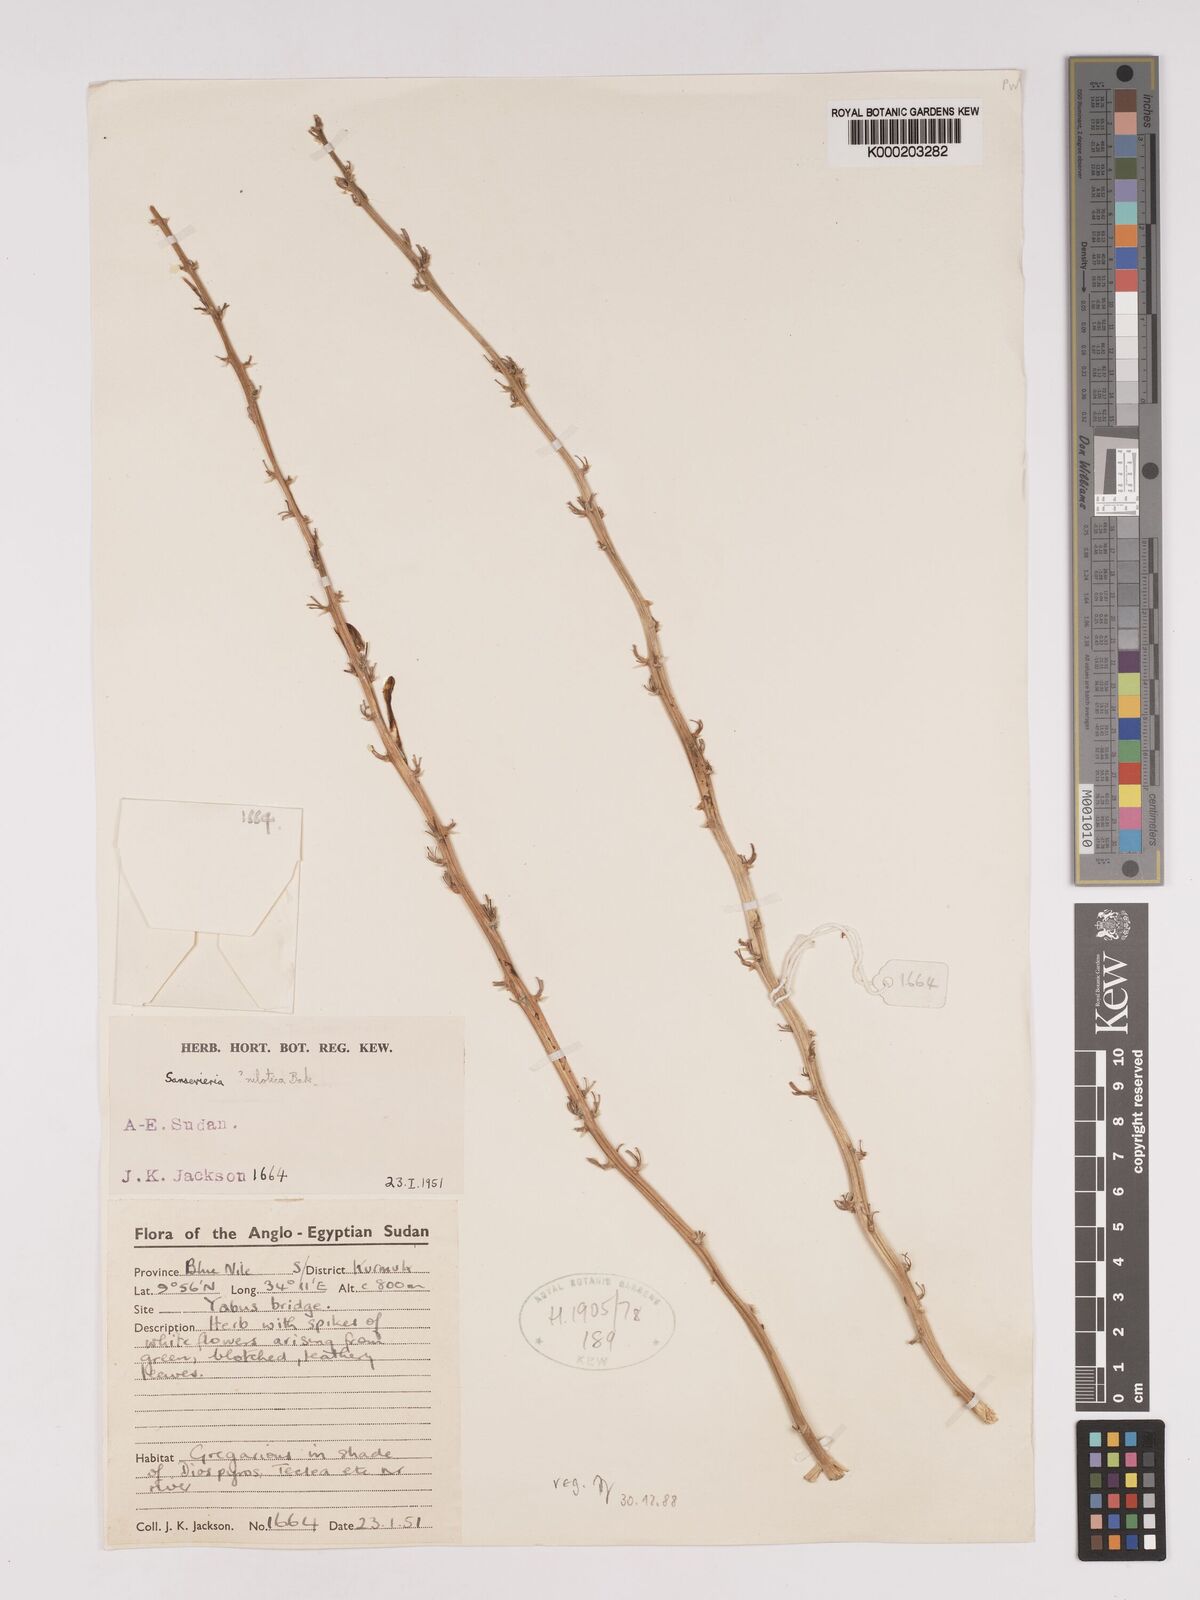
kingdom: Plantae
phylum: Tracheophyta
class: Liliopsida
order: Asparagales
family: Asparagaceae
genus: Dracaena
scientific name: Dracaena nilotica
